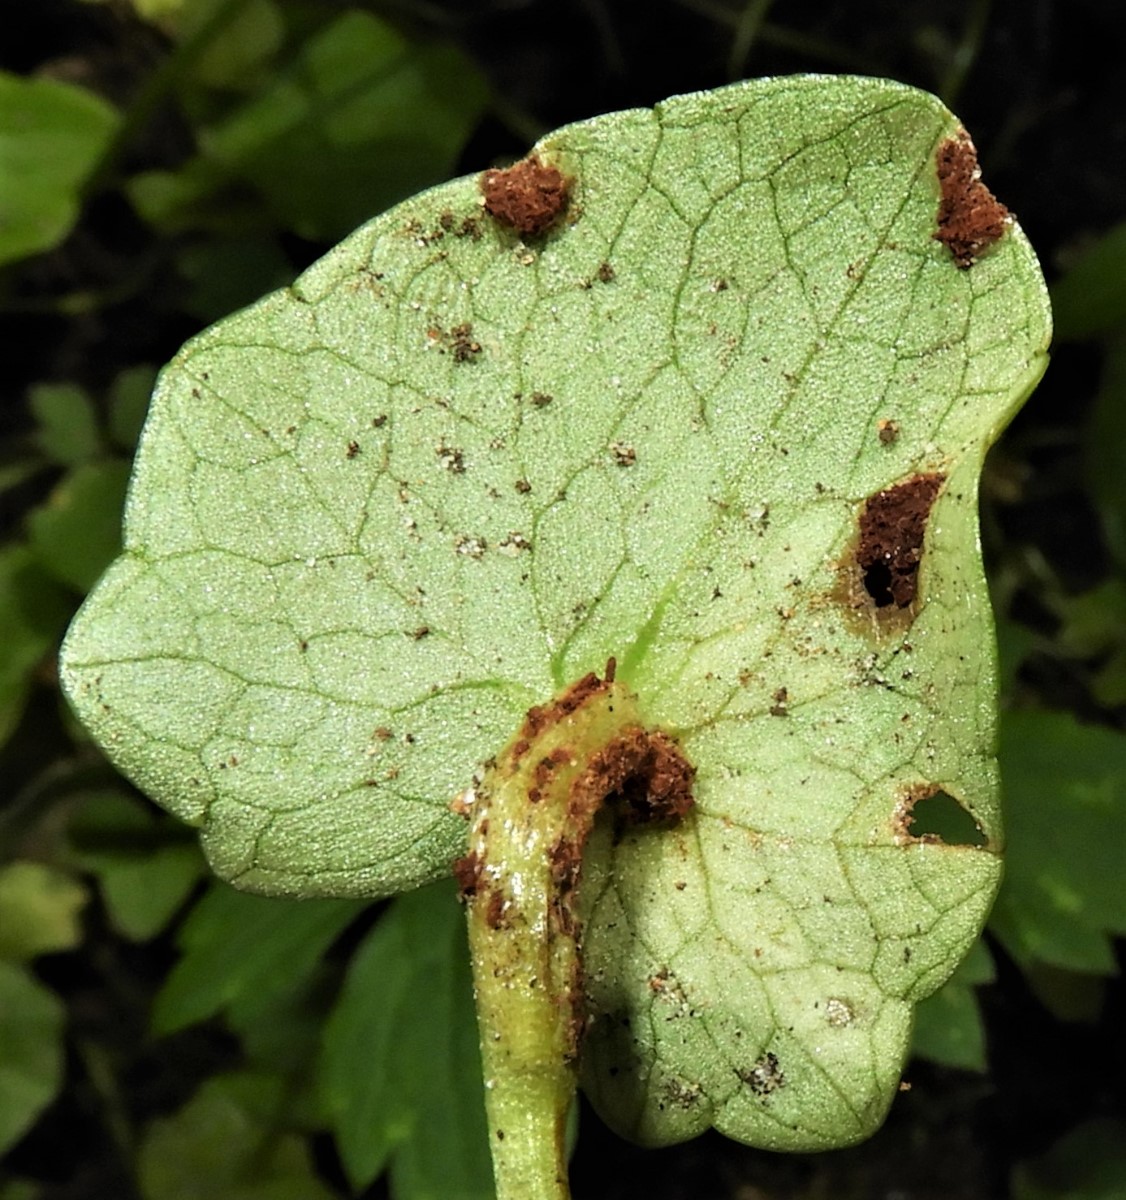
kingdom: Fungi
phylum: Basidiomycota
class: Pucciniomycetes
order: Pucciniales
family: Pucciniaceae
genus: Uromyces
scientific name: Uromyces ficariae
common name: vorterod-encellerust
